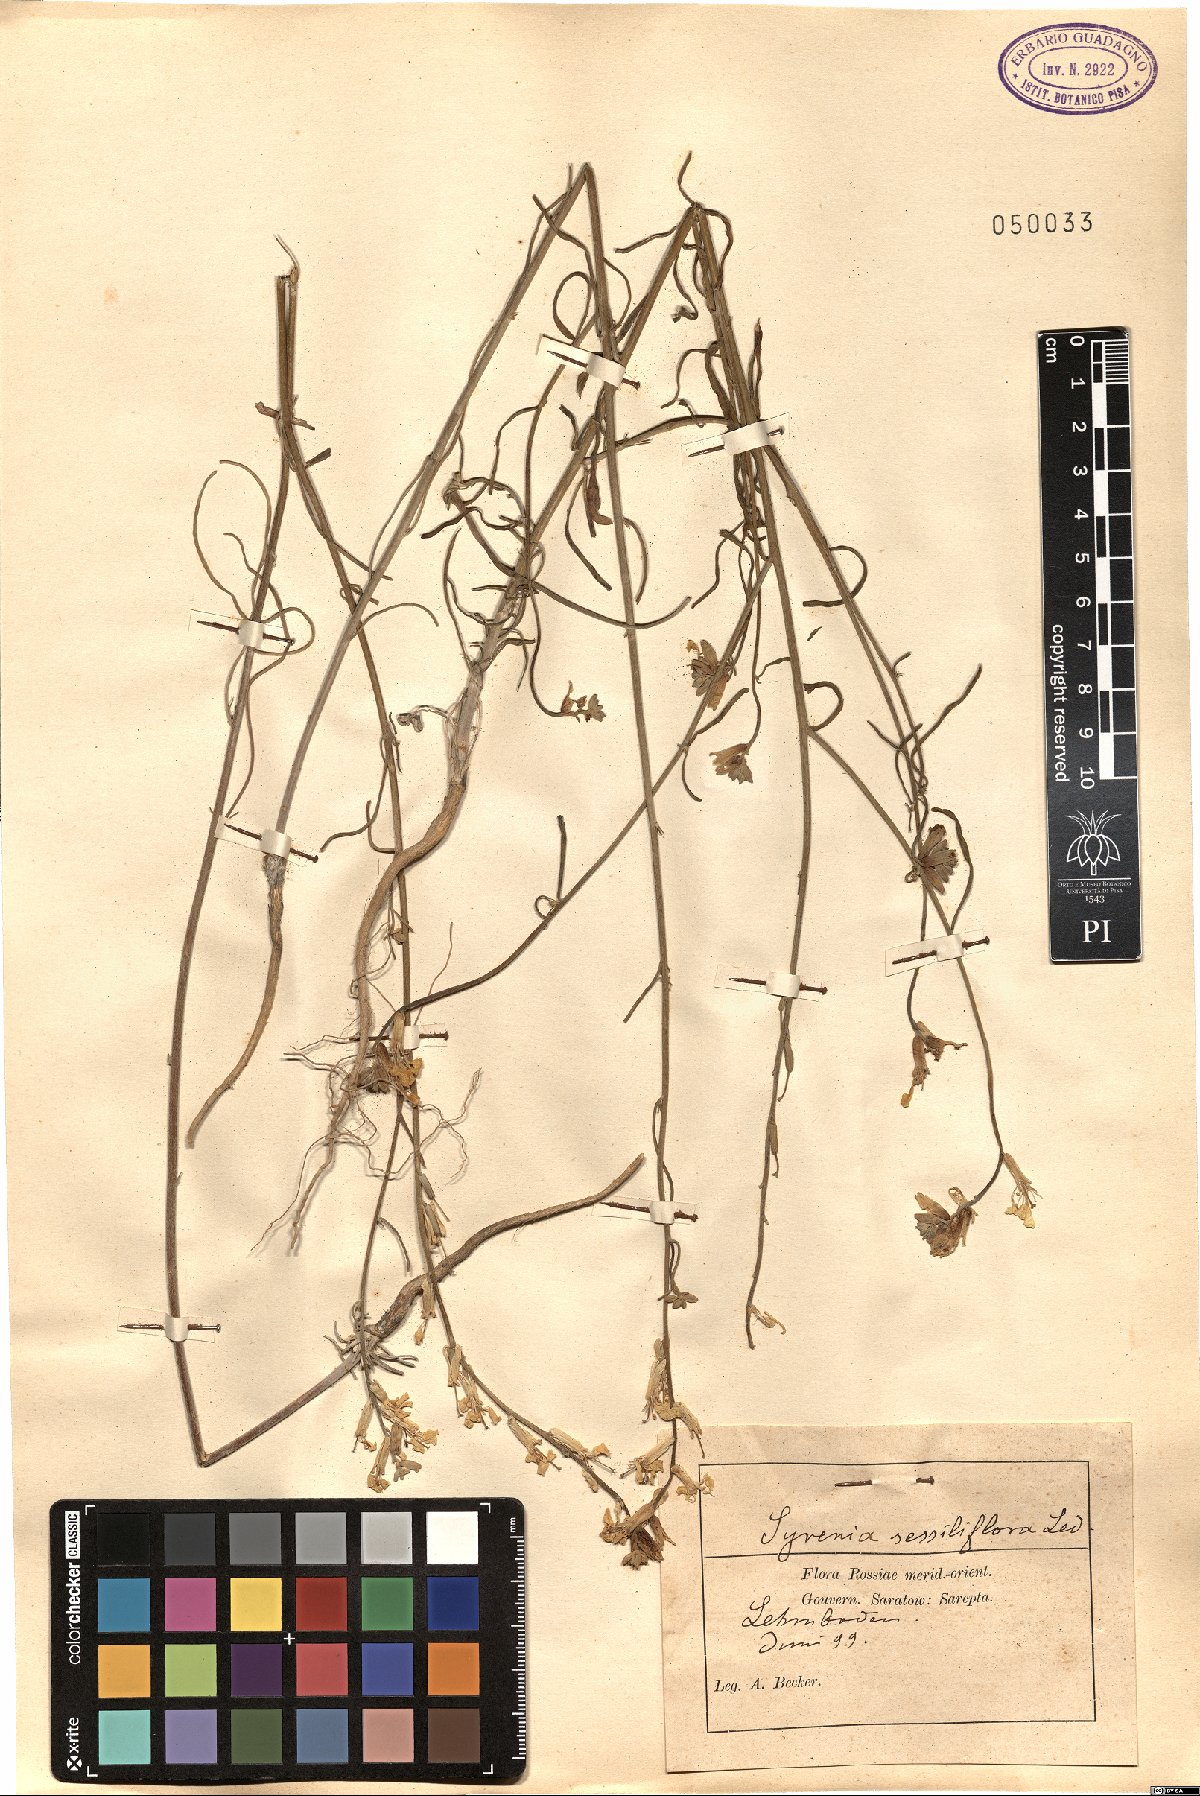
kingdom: Plantae
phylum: Tracheophyta
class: Magnoliopsida
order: Brassicales
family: Brassicaceae
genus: Erysimum
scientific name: Erysimum montanum
